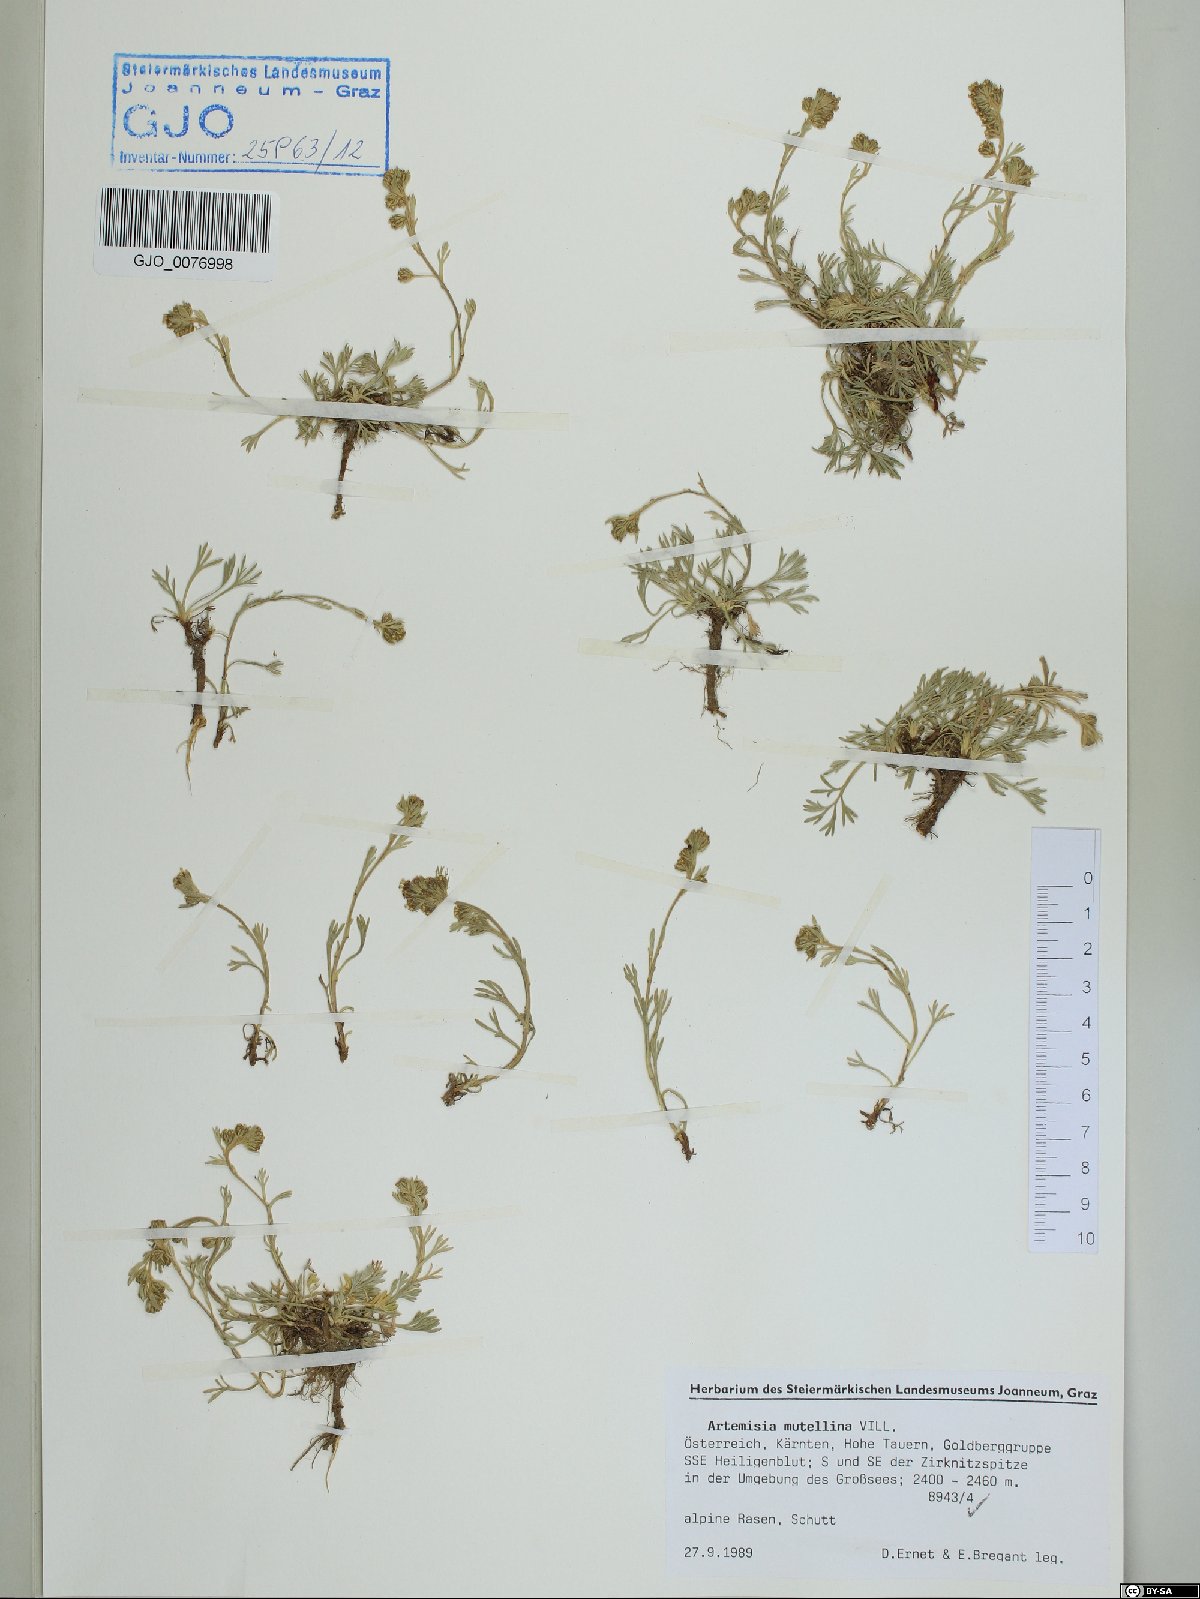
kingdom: Plantae
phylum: Tracheophyta
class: Magnoliopsida
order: Asterales
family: Asteraceae
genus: Artemisia
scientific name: Artemisia mutellina
